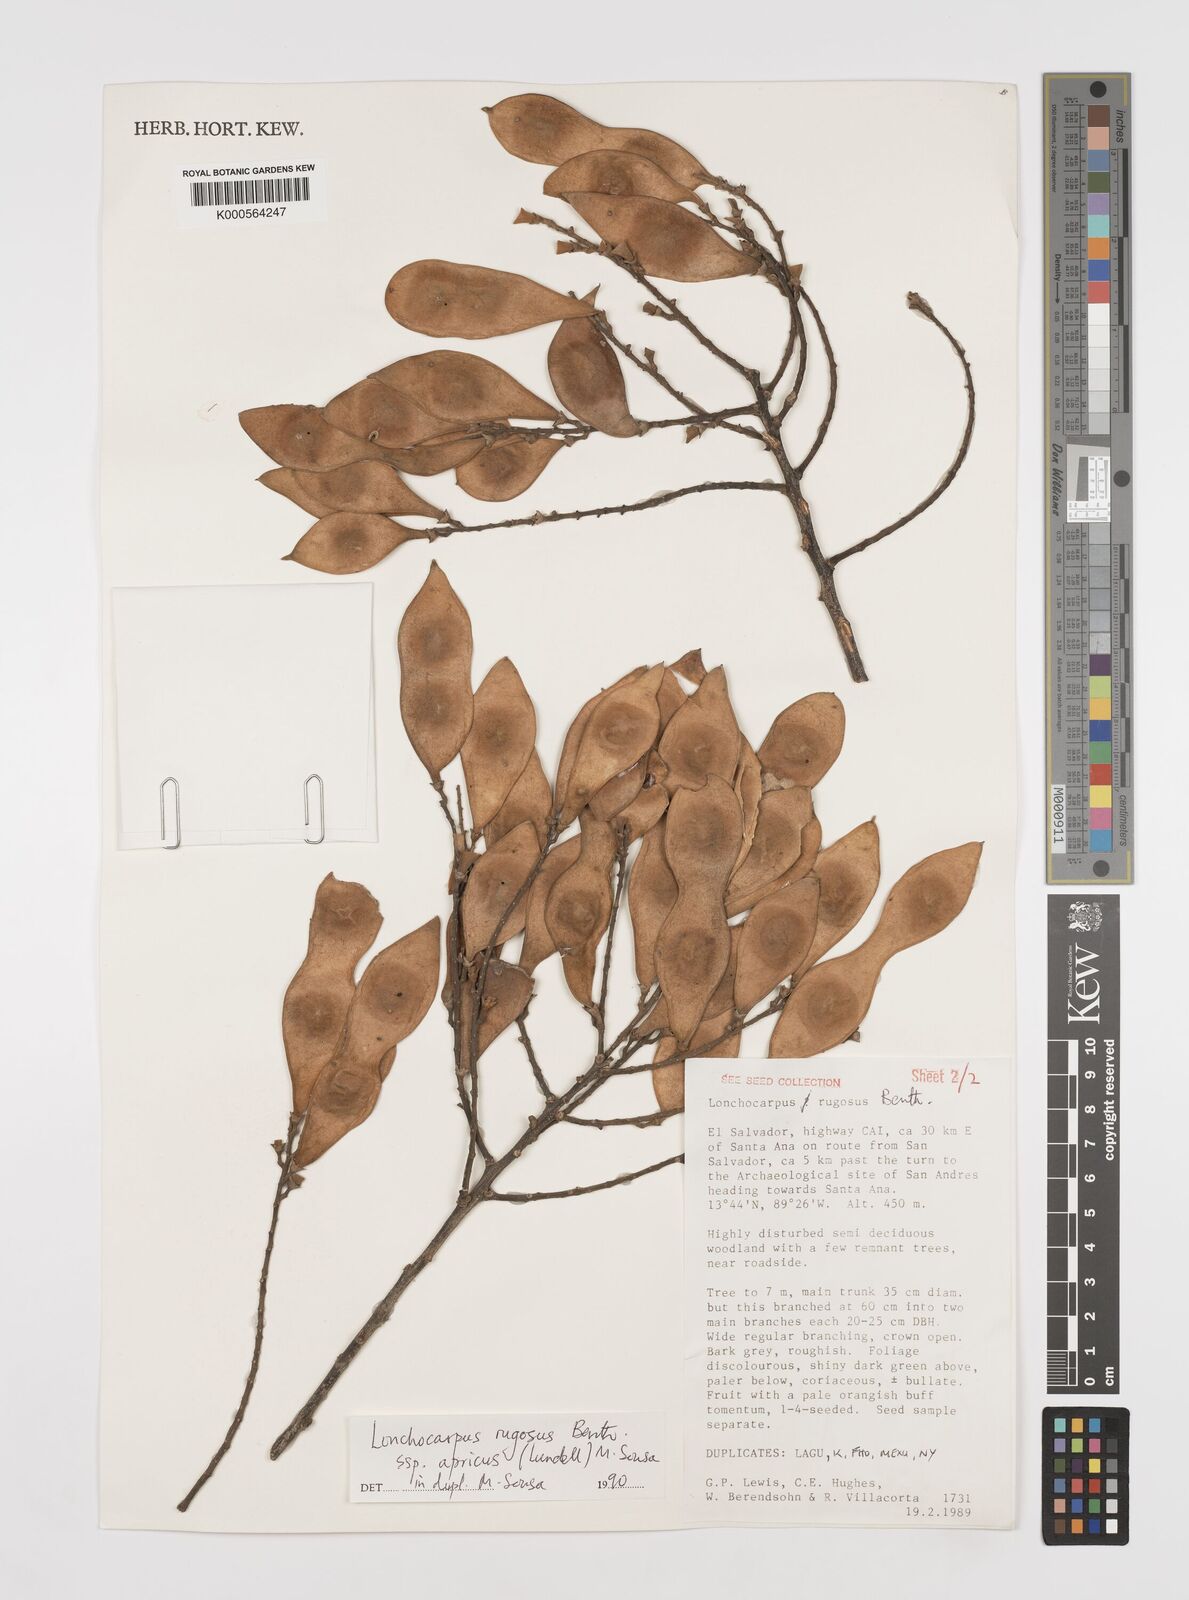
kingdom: Plantae
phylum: Tracheophyta
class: Magnoliopsida
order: Fabales
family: Fabaceae
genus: Lonchocarpus
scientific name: Lonchocarpus rugosus
